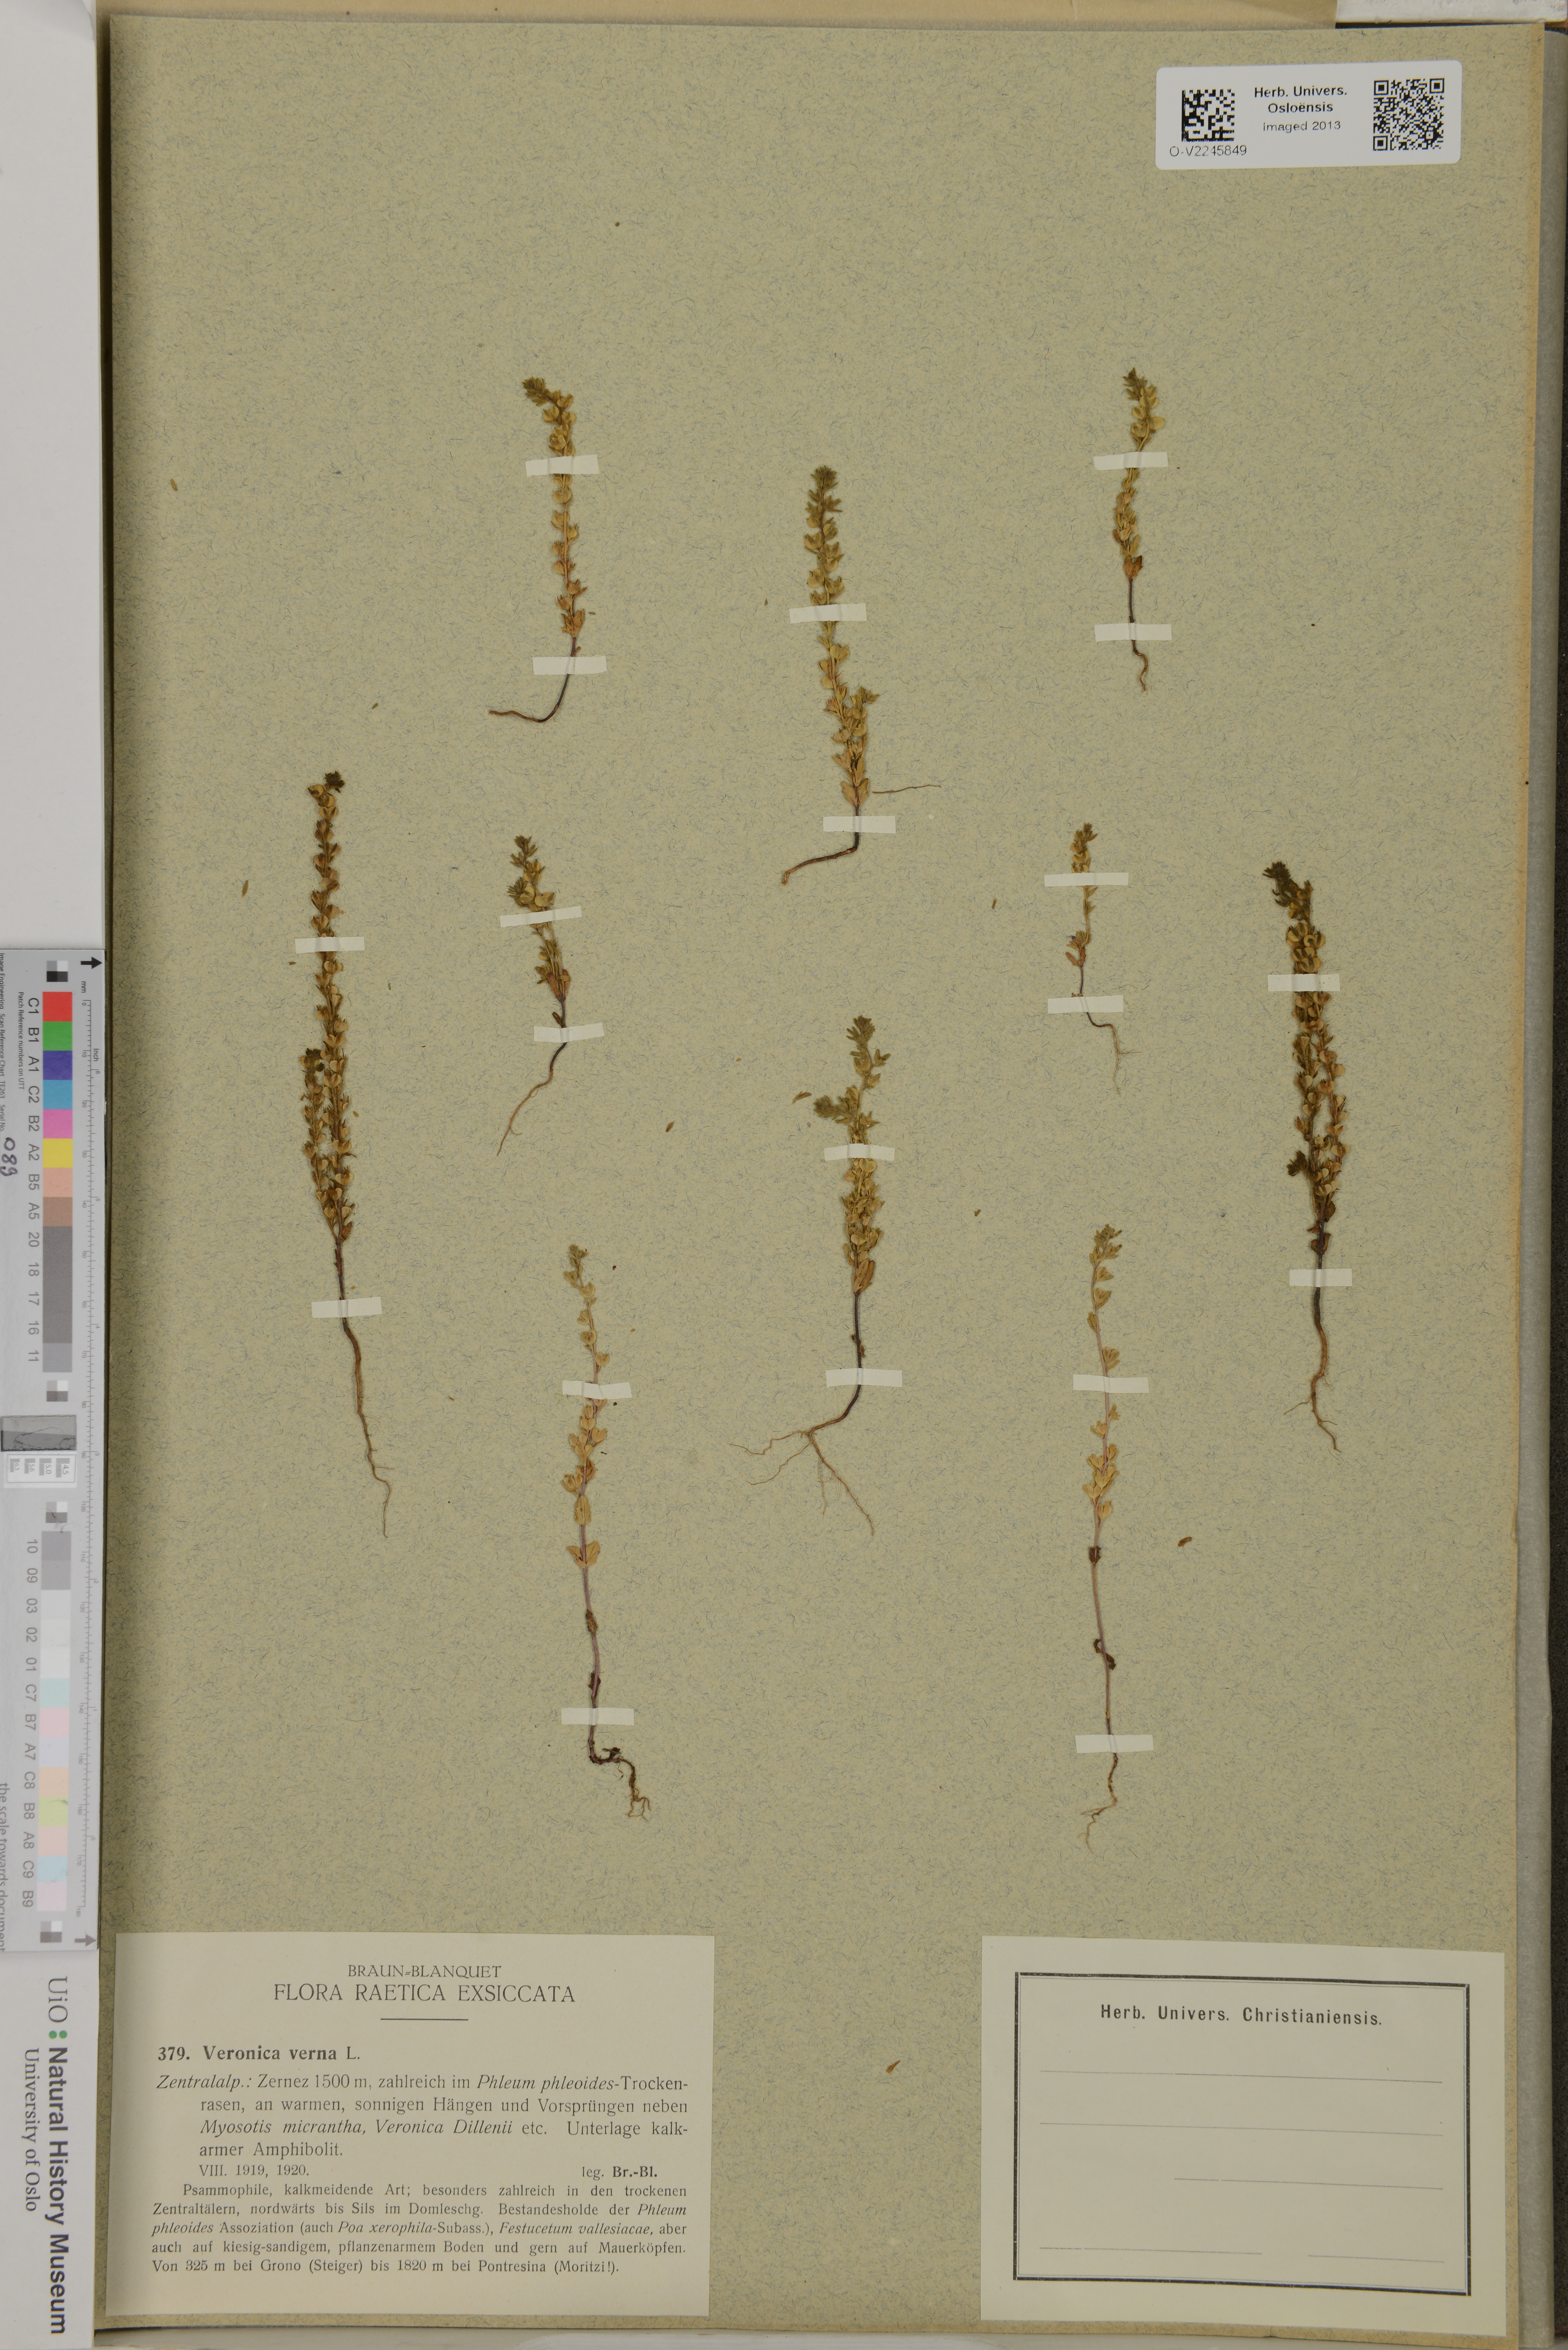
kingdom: Plantae
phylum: Tracheophyta
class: Magnoliopsida
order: Lamiales
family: Plantaginaceae
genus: Veronica
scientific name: Veronica verna
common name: Spring speedwell
